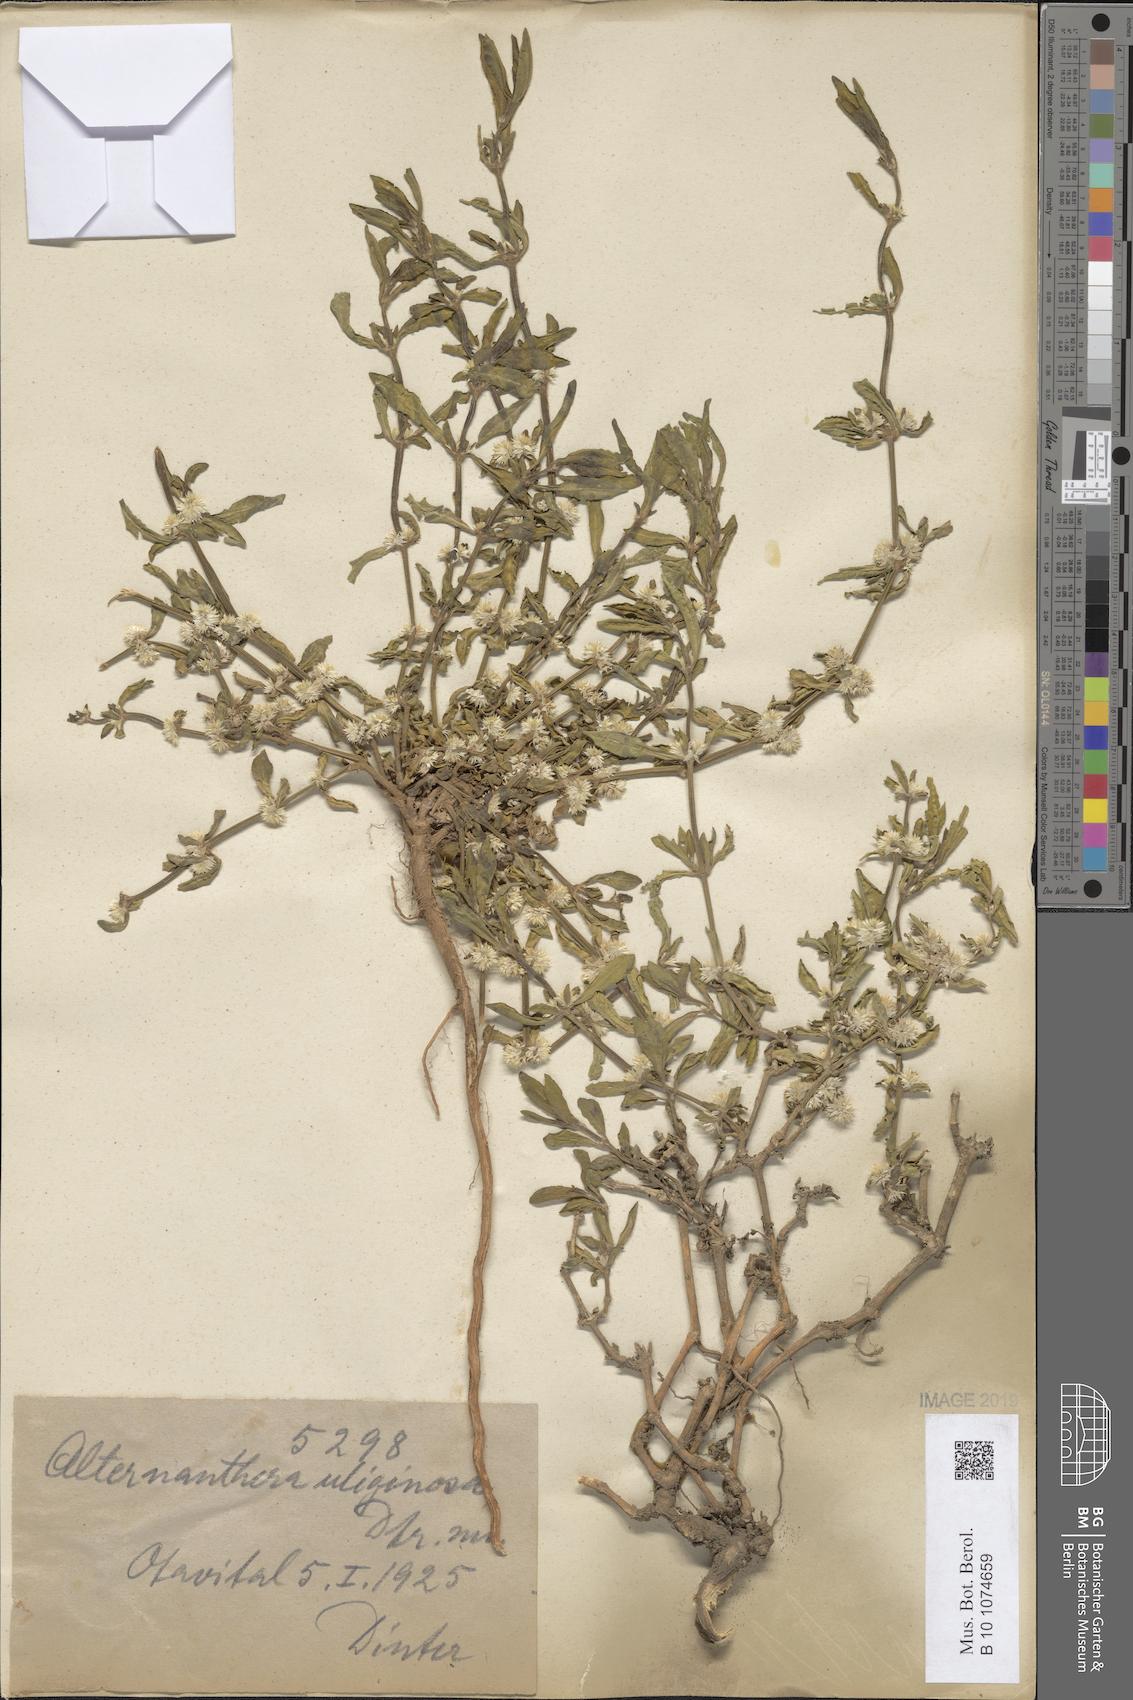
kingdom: Plantae
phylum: Tracheophyta
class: Magnoliopsida
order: Caryophyllales
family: Amaranthaceae
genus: Alternanthera
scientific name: Alternanthera
